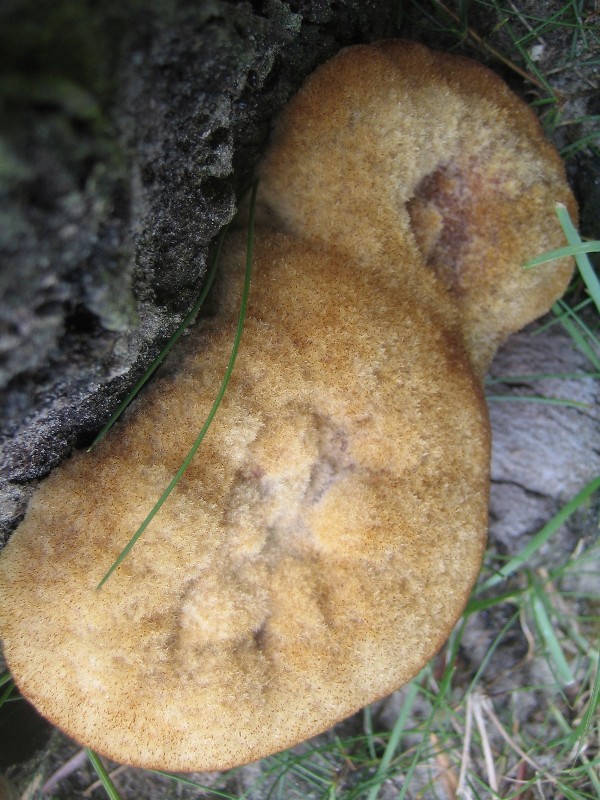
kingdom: Fungi
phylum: Basidiomycota
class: Agaricomycetes
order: Polyporales
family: Laetiporaceae
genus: Phaeolus
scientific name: Phaeolus schweinitzii
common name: brunporesvamp
